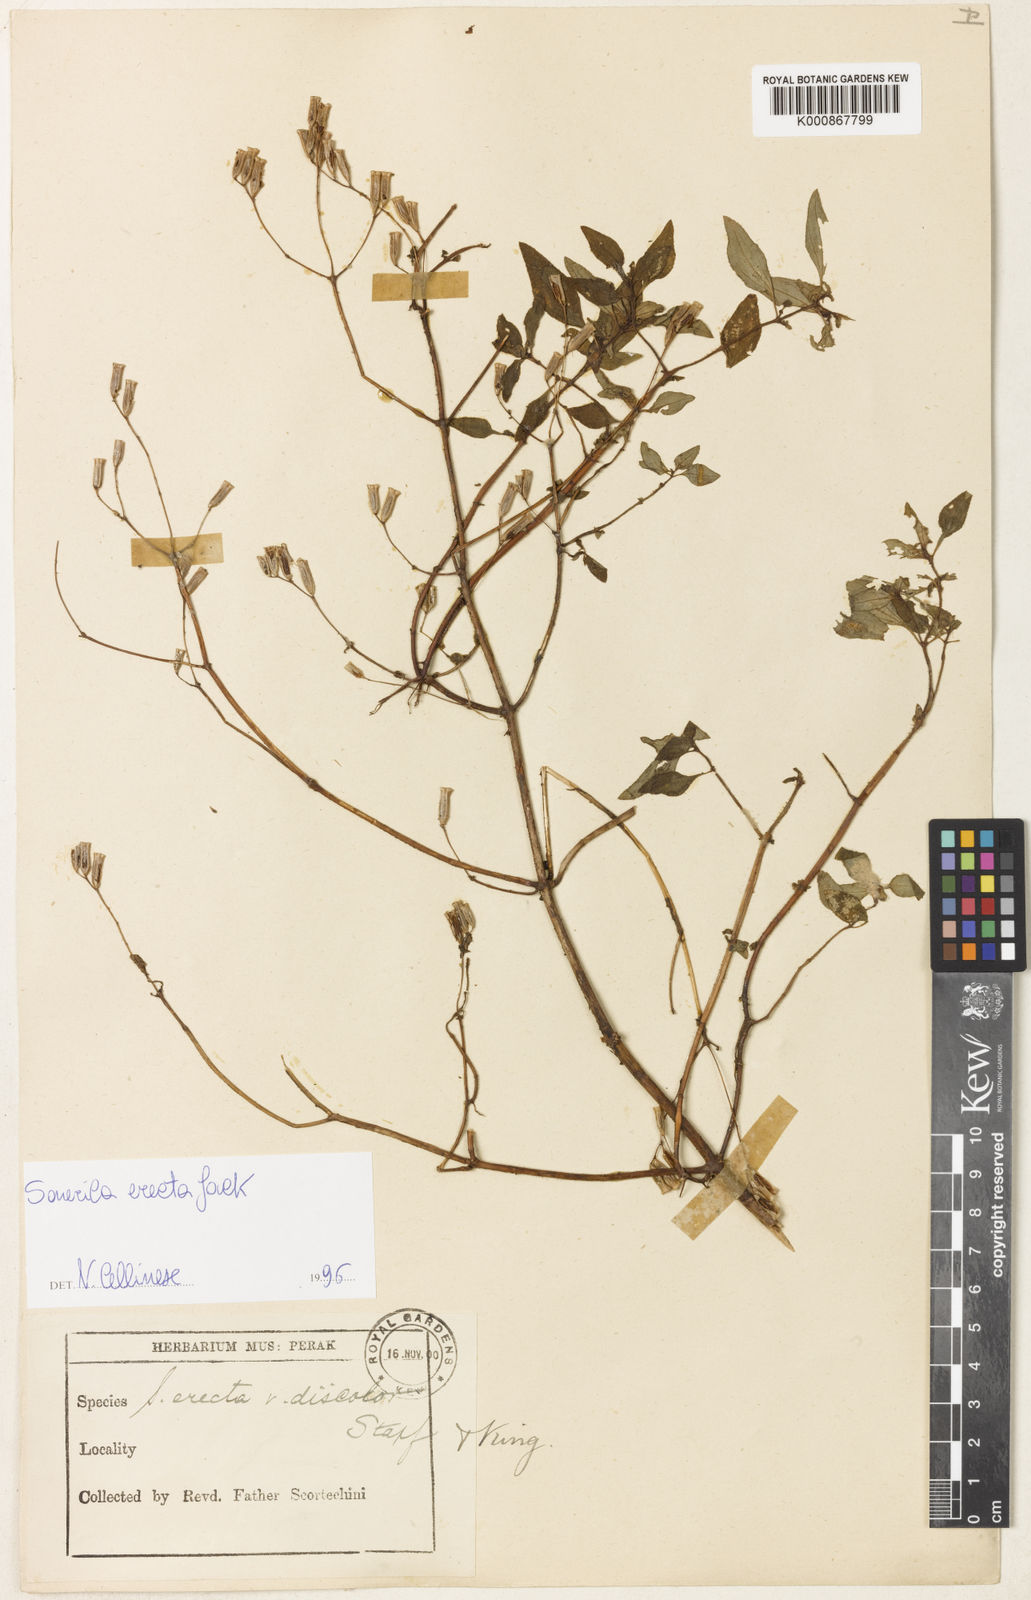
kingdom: Plantae
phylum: Tracheophyta
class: Magnoliopsida
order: Myrtales
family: Melastomataceae
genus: Sonerila
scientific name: Sonerila erecta
